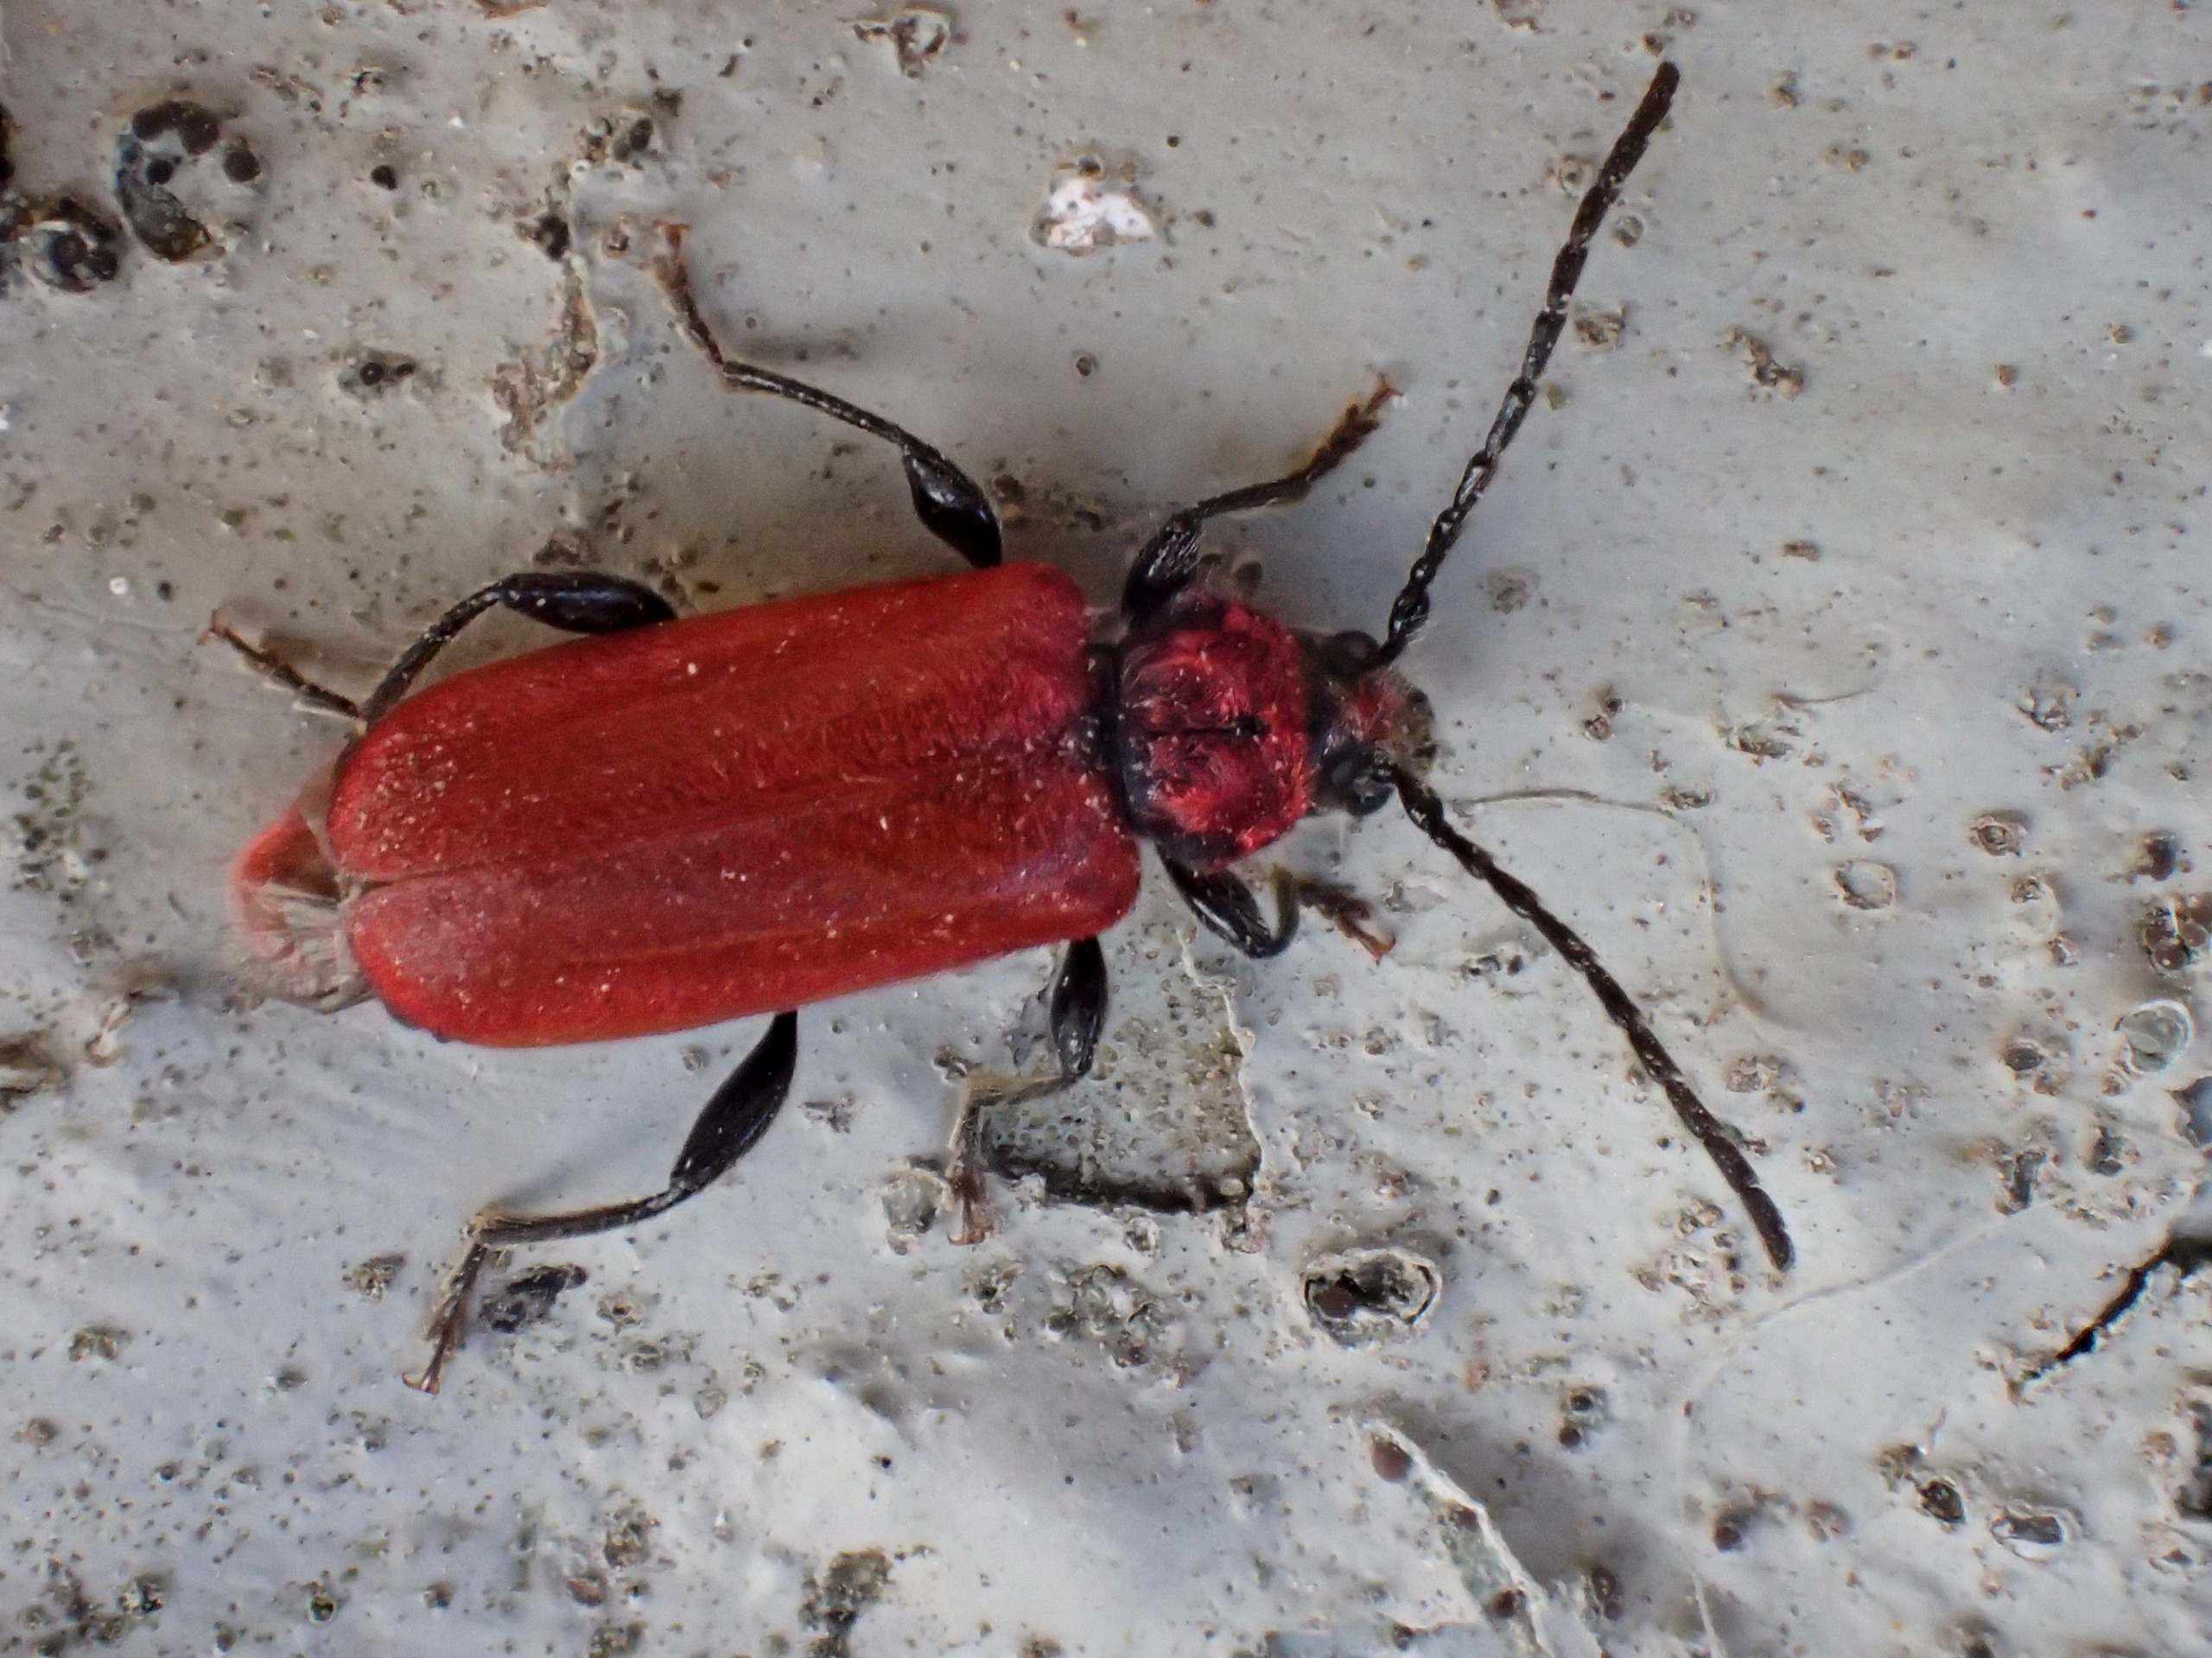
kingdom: Animalia
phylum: Arthropoda
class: Insecta
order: Coleoptera
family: Cerambycidae
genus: Pyrrhidium
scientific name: Pyrrhidium sanguineum
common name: Rød skivebuk
